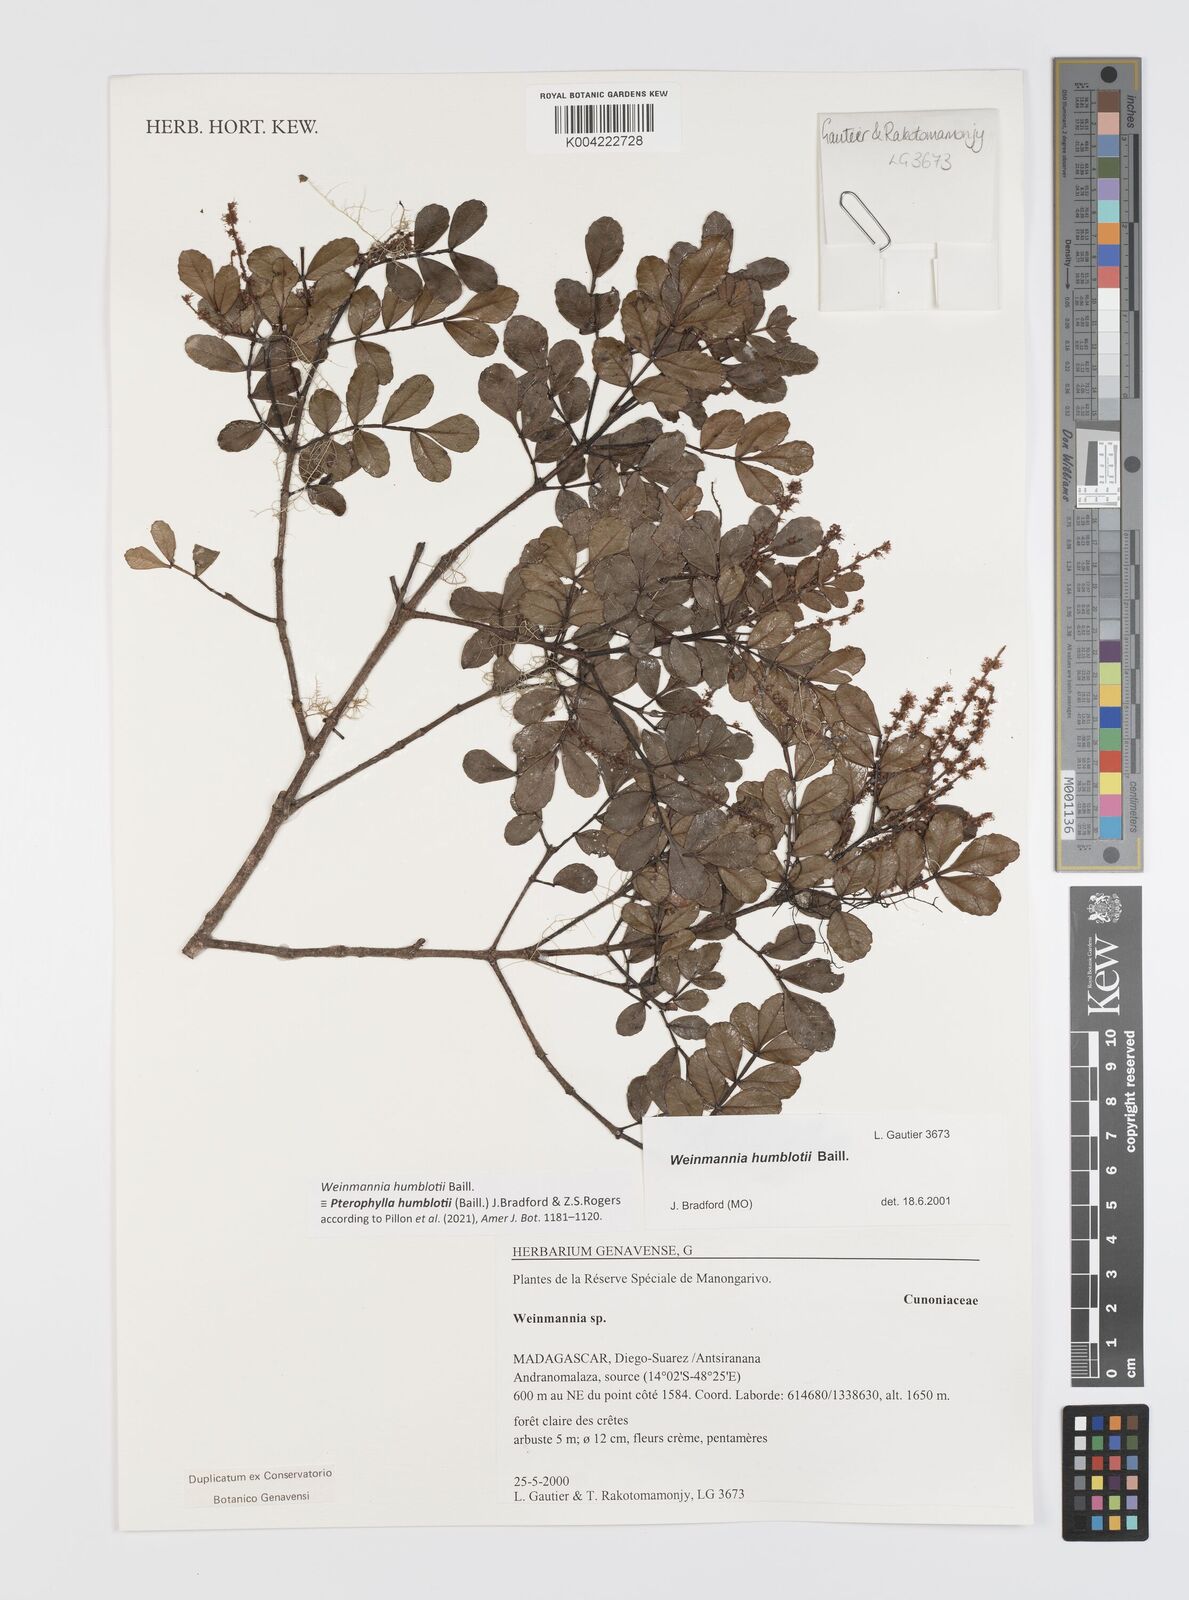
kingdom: Plantae
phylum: Tracheophyta
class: Magnoliopsida
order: Oxalidales
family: Cunoniaceae
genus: Pterophylla
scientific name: Pterophylla
